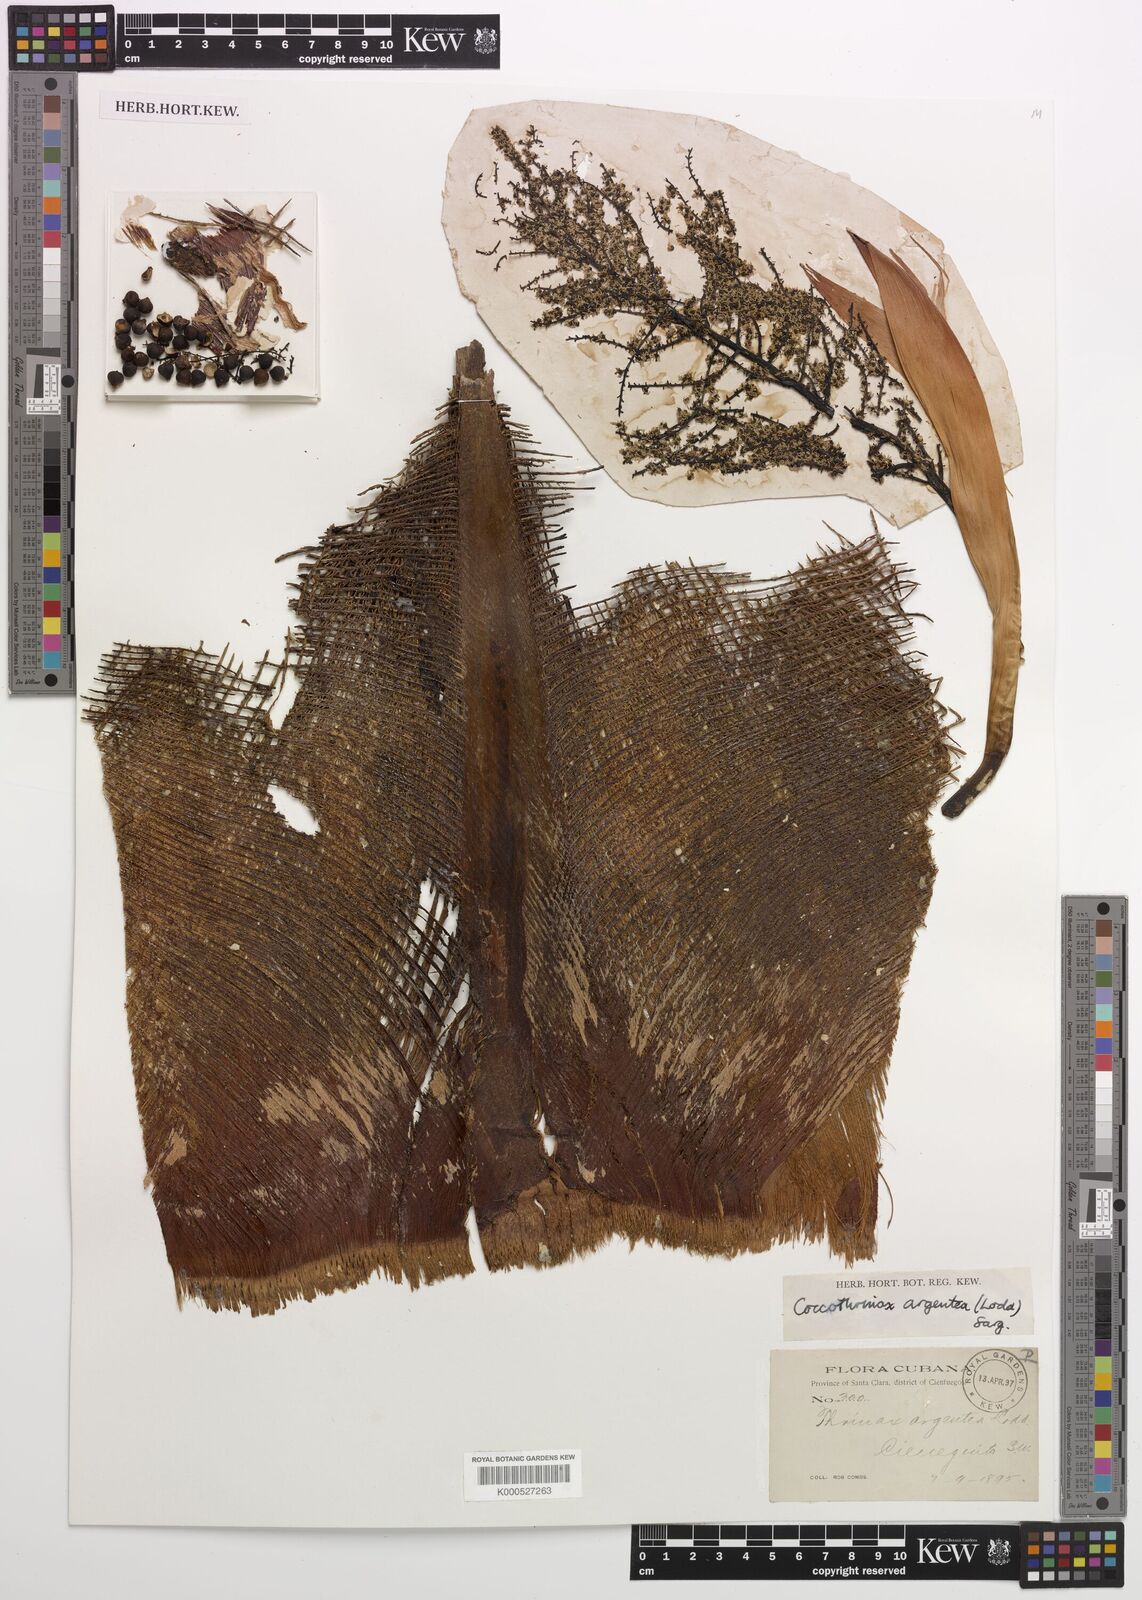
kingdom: Plantae
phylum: Tracheophyta
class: Liliopsida
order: Arecales
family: Arecaceae
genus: Coccothrinax
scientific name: Coccothrinax argentea
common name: Broom palm
